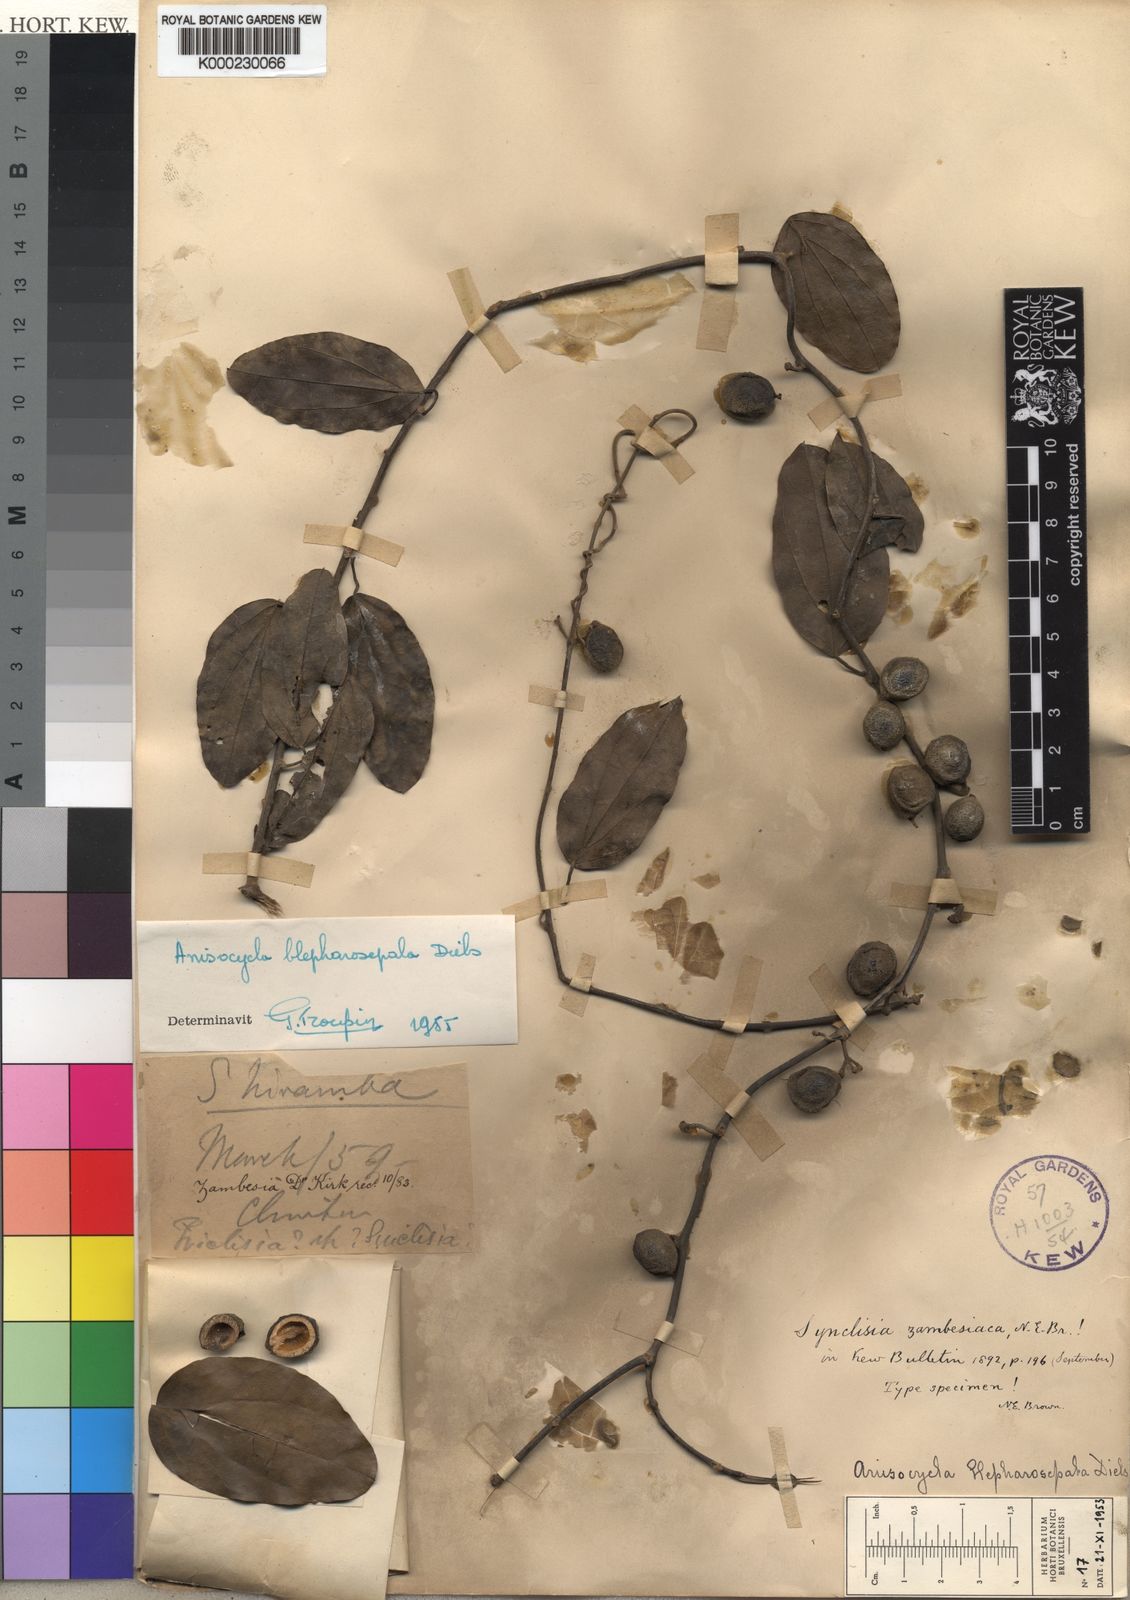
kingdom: Plantae
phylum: Tracheophyta
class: Magnoliopsida
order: Ranunculales
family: Menispermaceae
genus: Anisocycla
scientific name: Anisocycla blepharosepala
